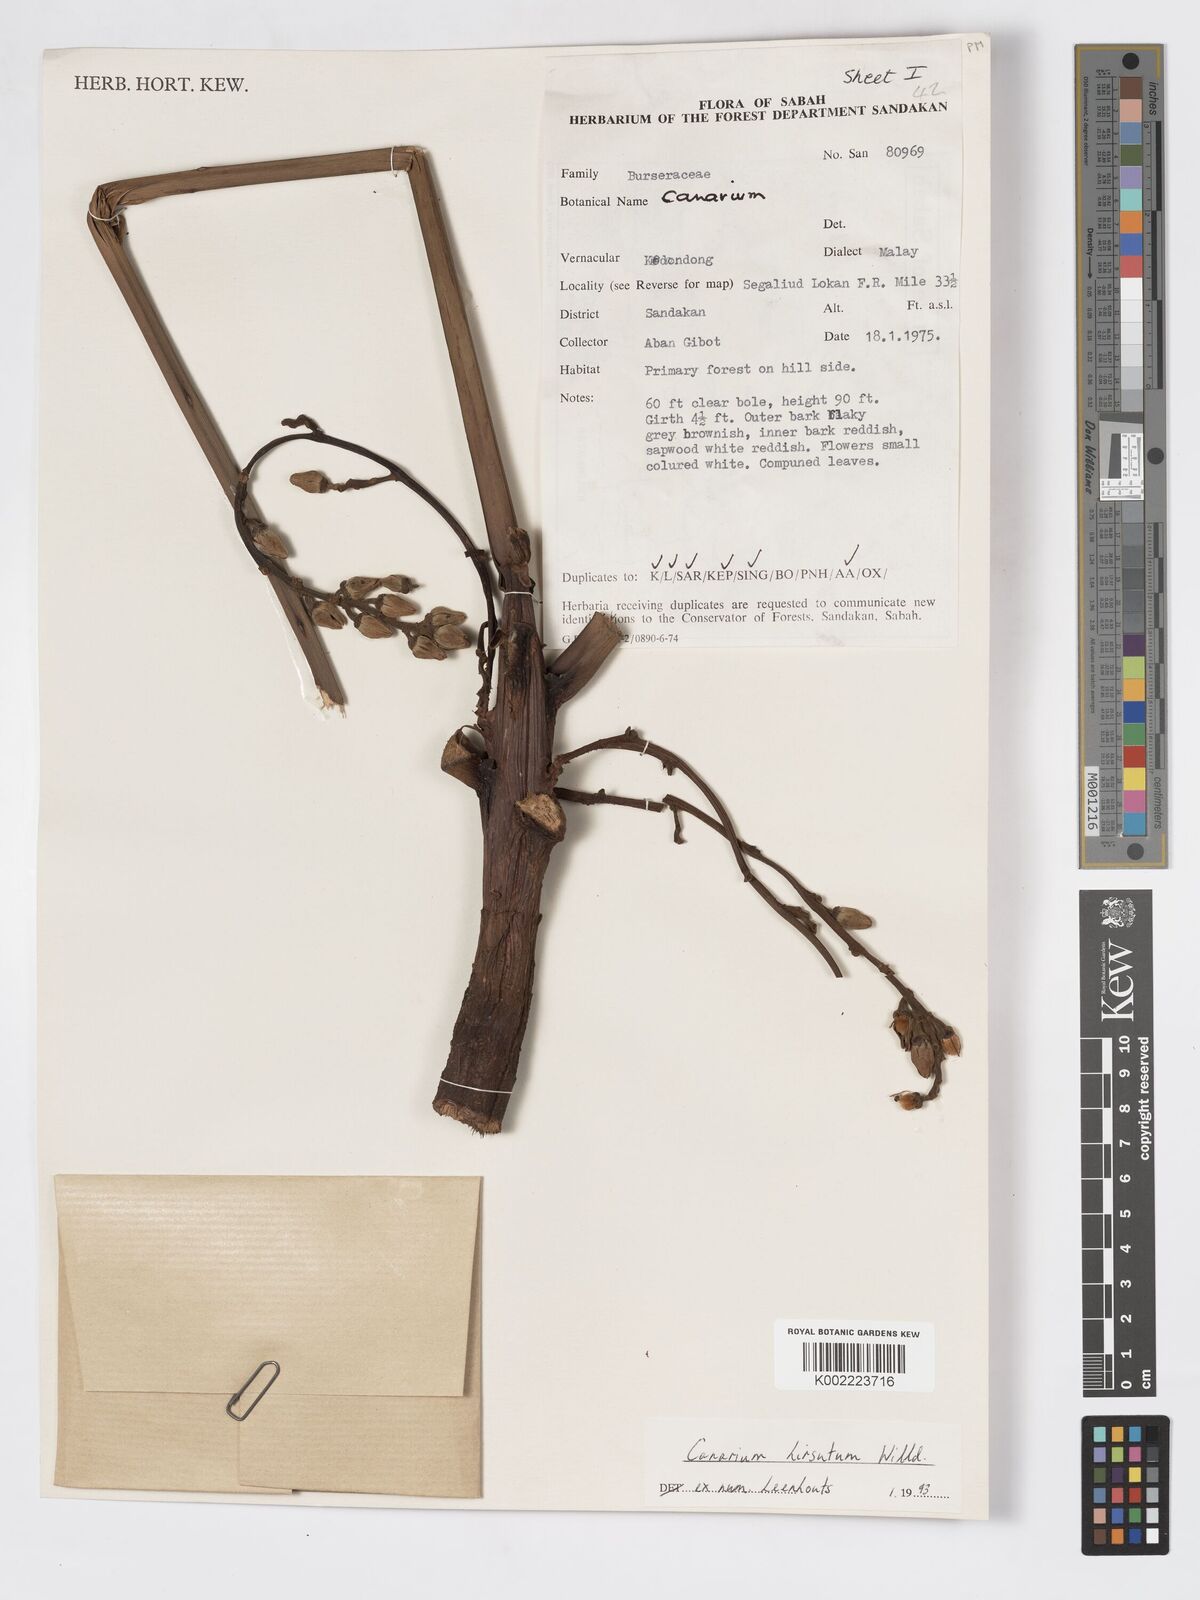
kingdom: Plantae
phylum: Tracheophyta
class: Magnoliopsida
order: Sapindales
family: Burseraceae
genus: Canarium
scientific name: Canarium hirsutum
